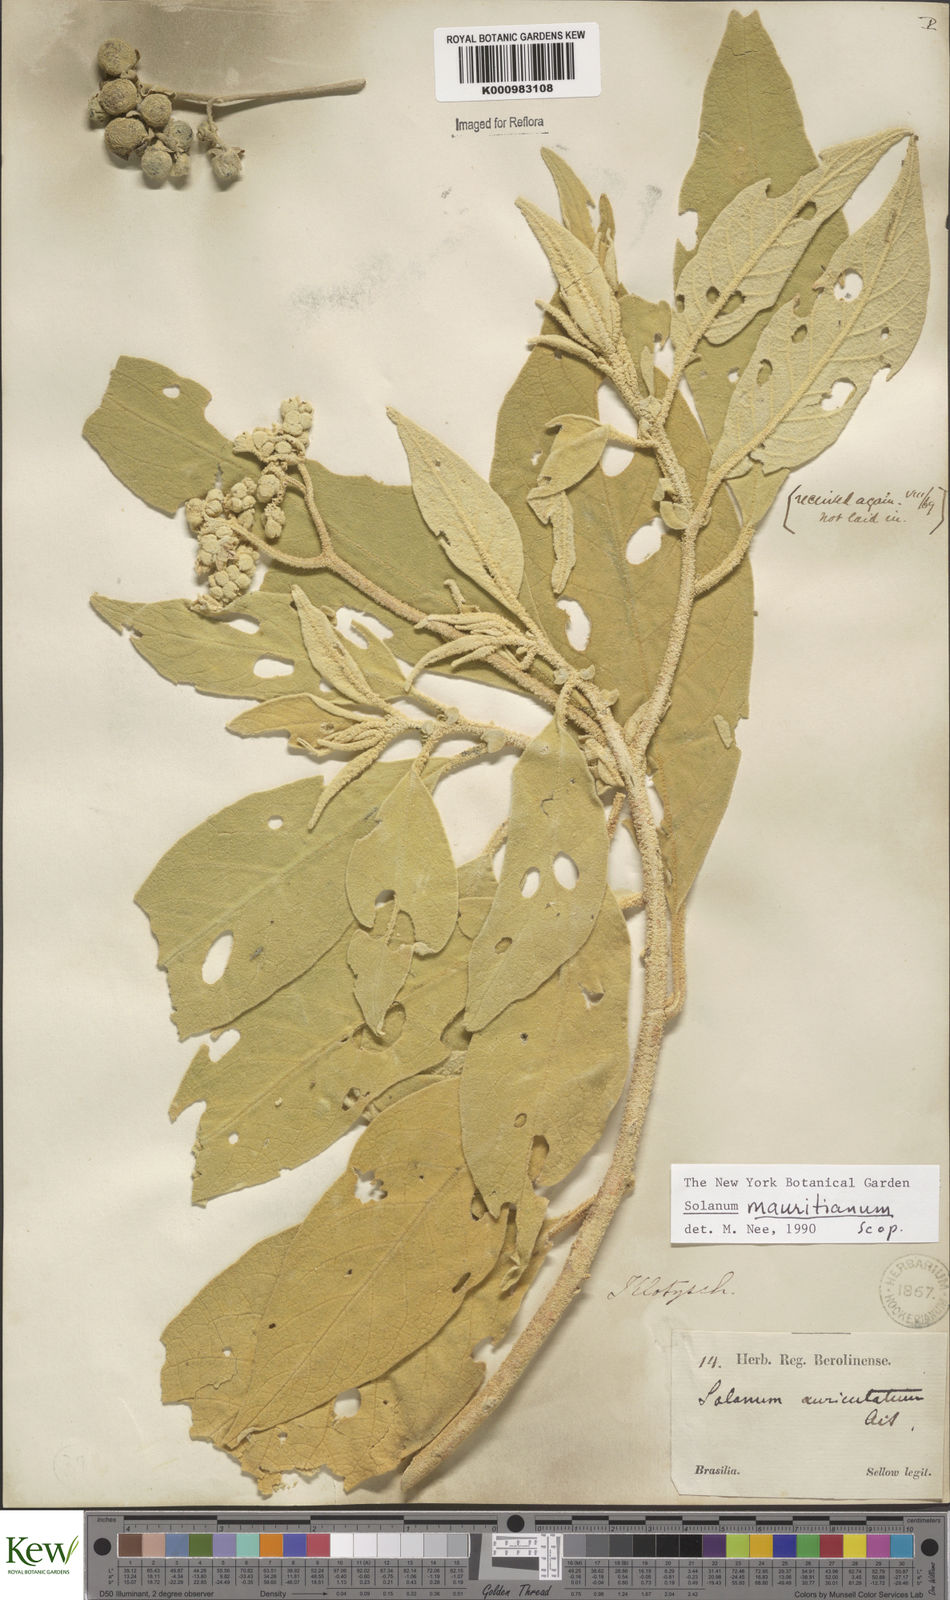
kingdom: Plantae
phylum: Tracheophyta
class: Magnoliopsida
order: Solanales
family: Solanaceae
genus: Solanum
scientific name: Solanum mauritianum
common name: Earleaf nightshade
